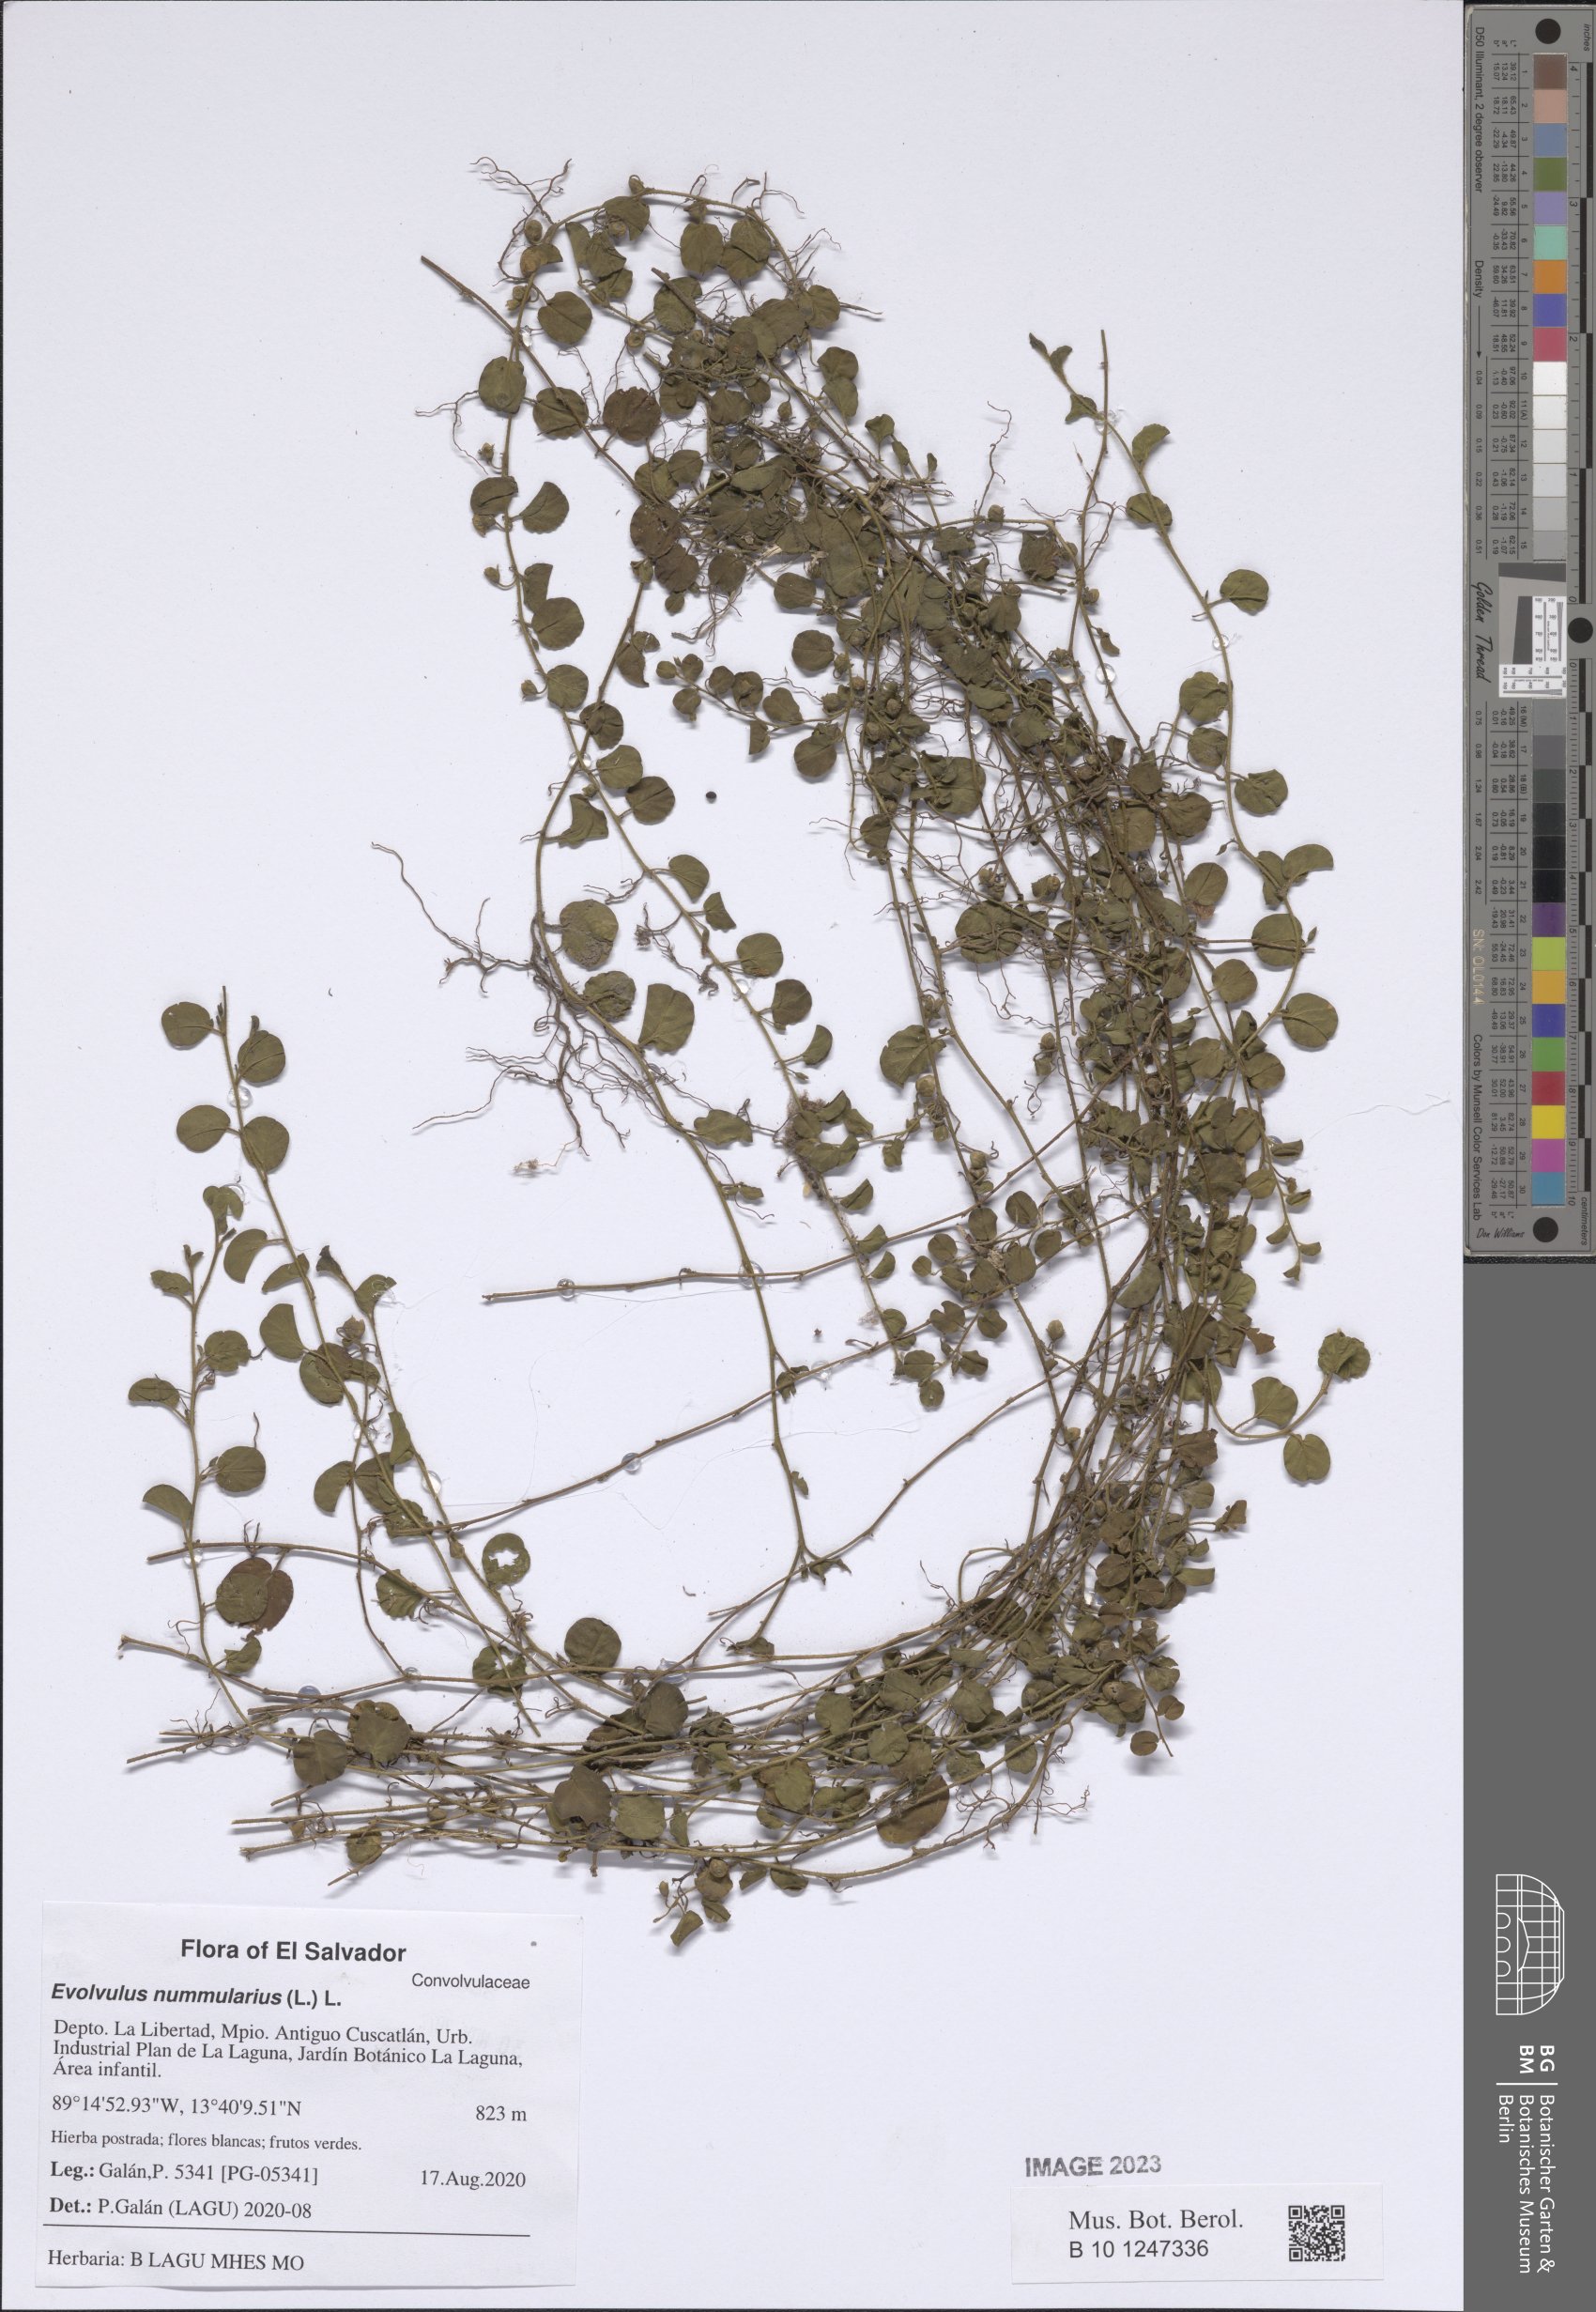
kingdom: Plantae
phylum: Tracheophyta
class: Magnoliopsida
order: Solanales
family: Convolvulaceae
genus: Evolvulus
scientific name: Evolvulus nummularius
